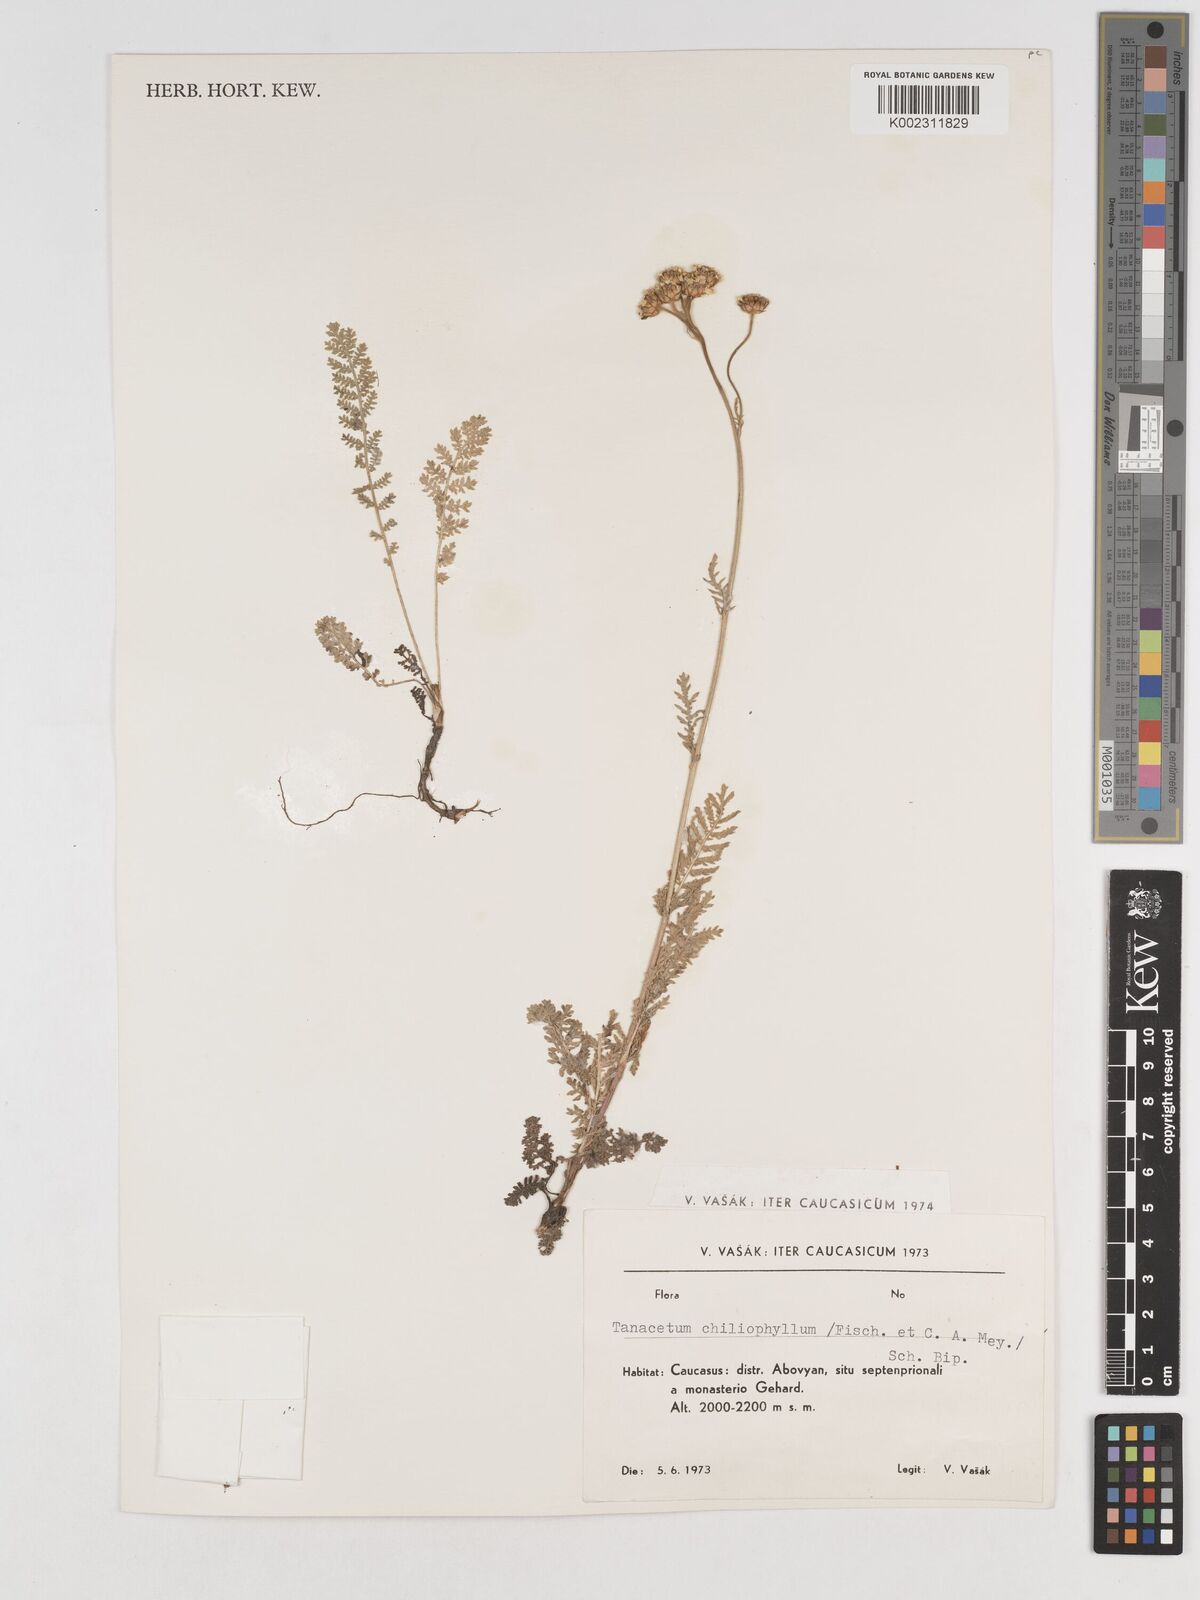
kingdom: Plantae
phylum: Tracheophyta
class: Magnoliopsida
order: Asterales
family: Asteraceae
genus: Tanacetum
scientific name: Tanacetum aureum
